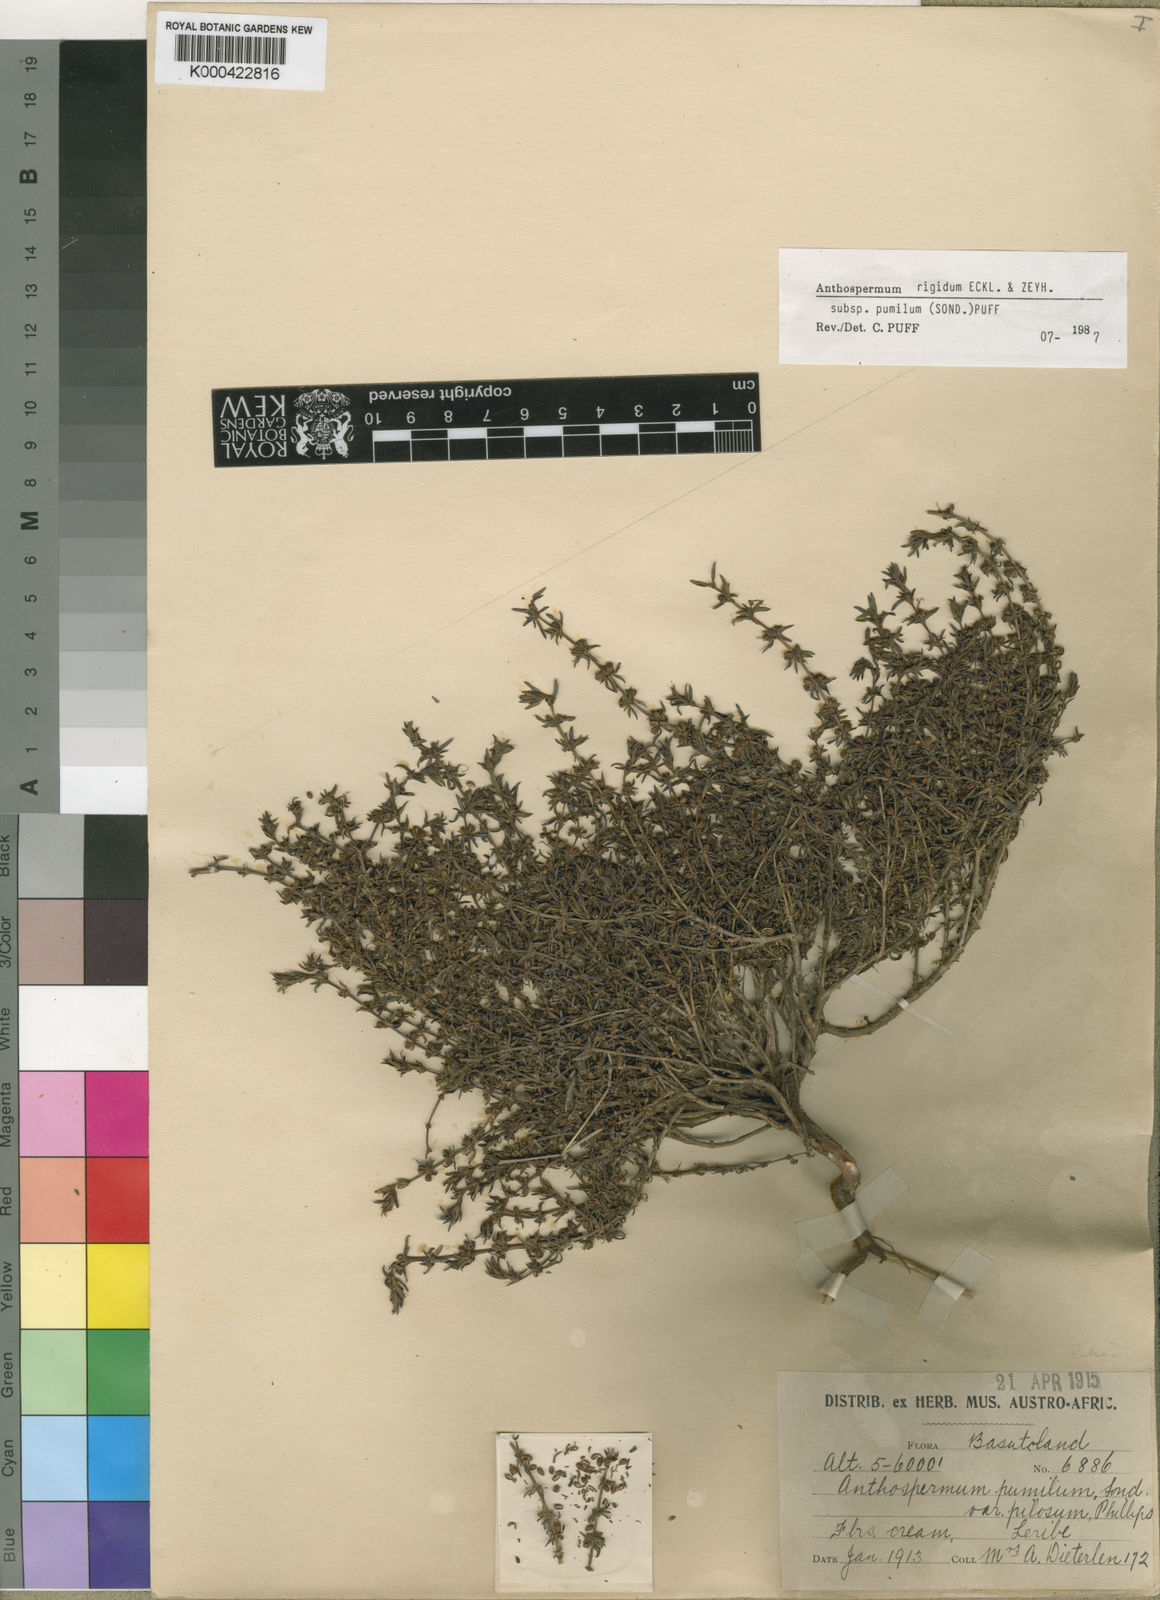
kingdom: Plantae
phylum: Tracheophyta
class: Magnoliopsida
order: Gentianales
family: Rubiaceae
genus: Anthospermum
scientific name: Anthospermum rigidum
